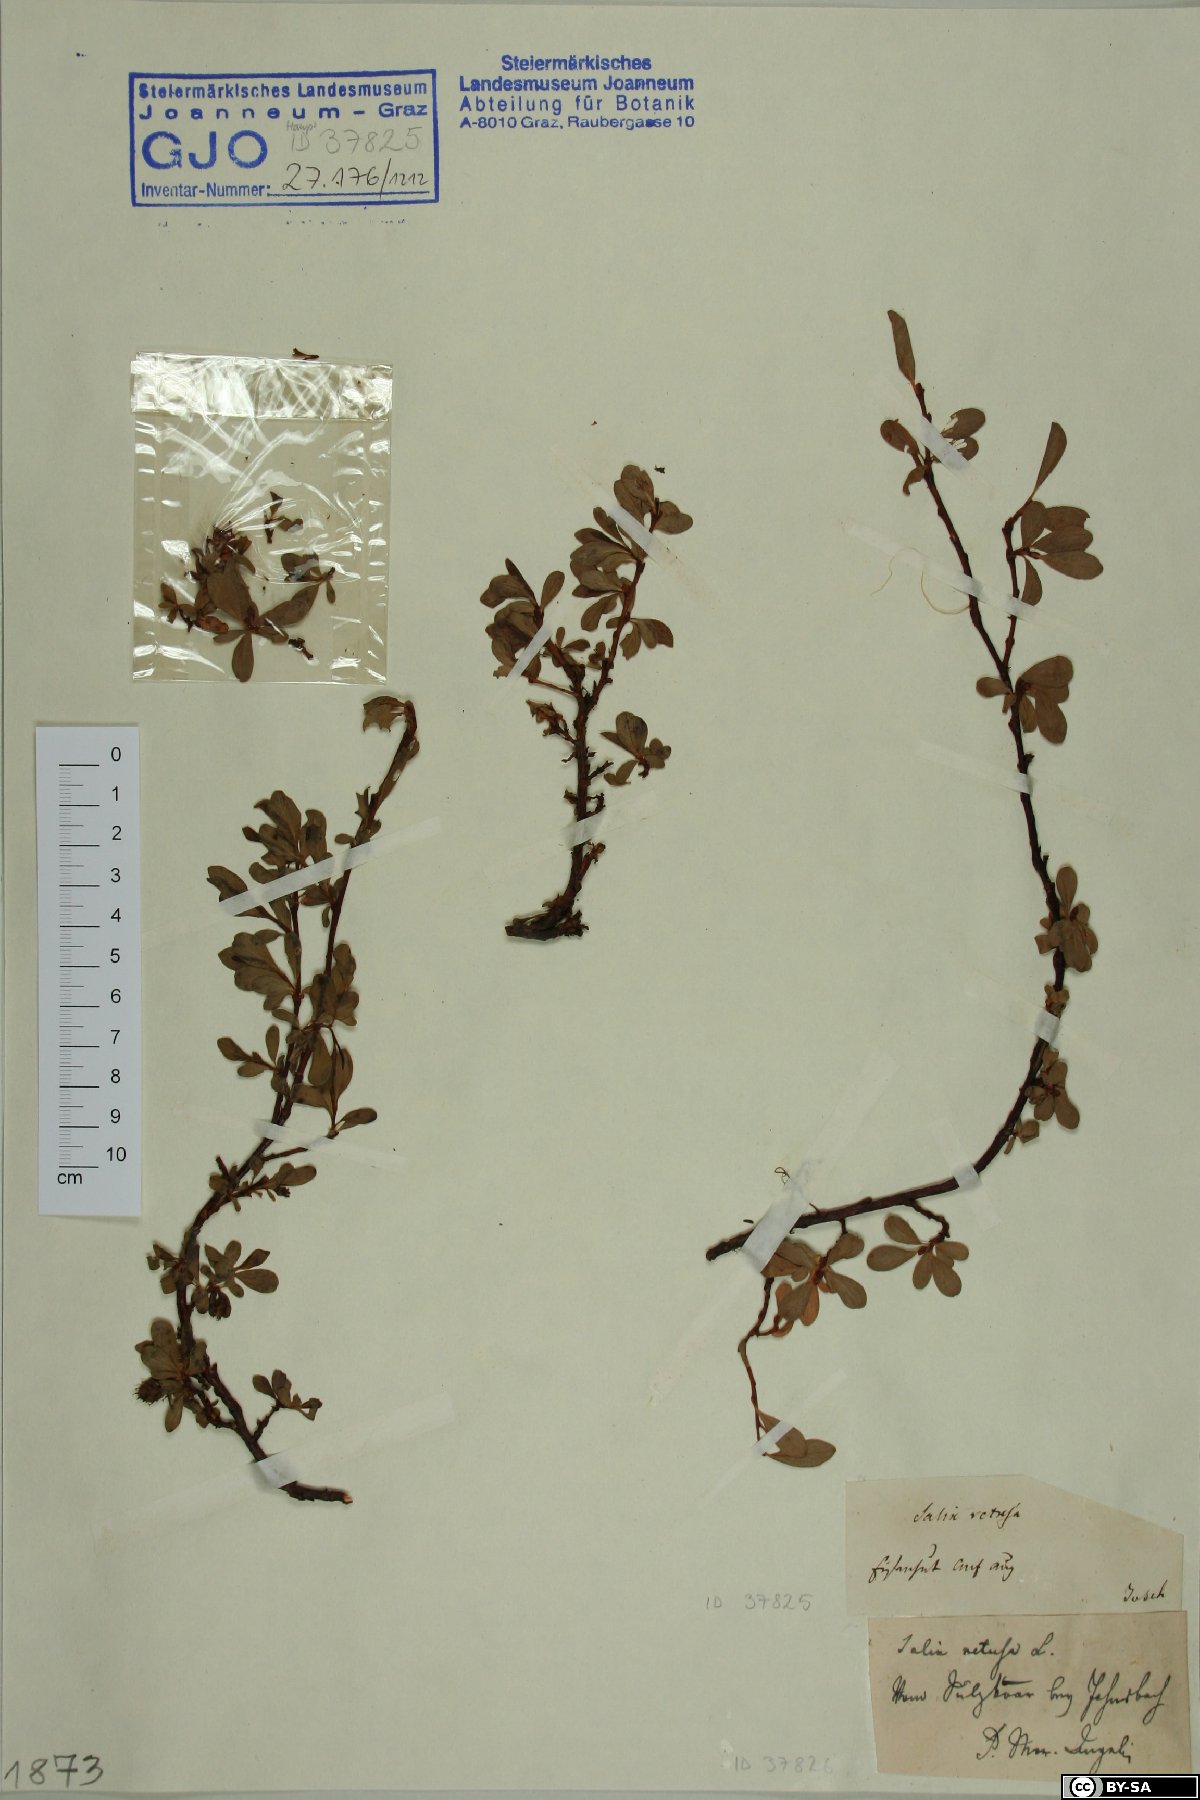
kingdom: Plantae
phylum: Tracheophyta
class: Magnoliopsida
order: Malpighiales
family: Salicaceae
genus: Salix
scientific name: Salix retusa
